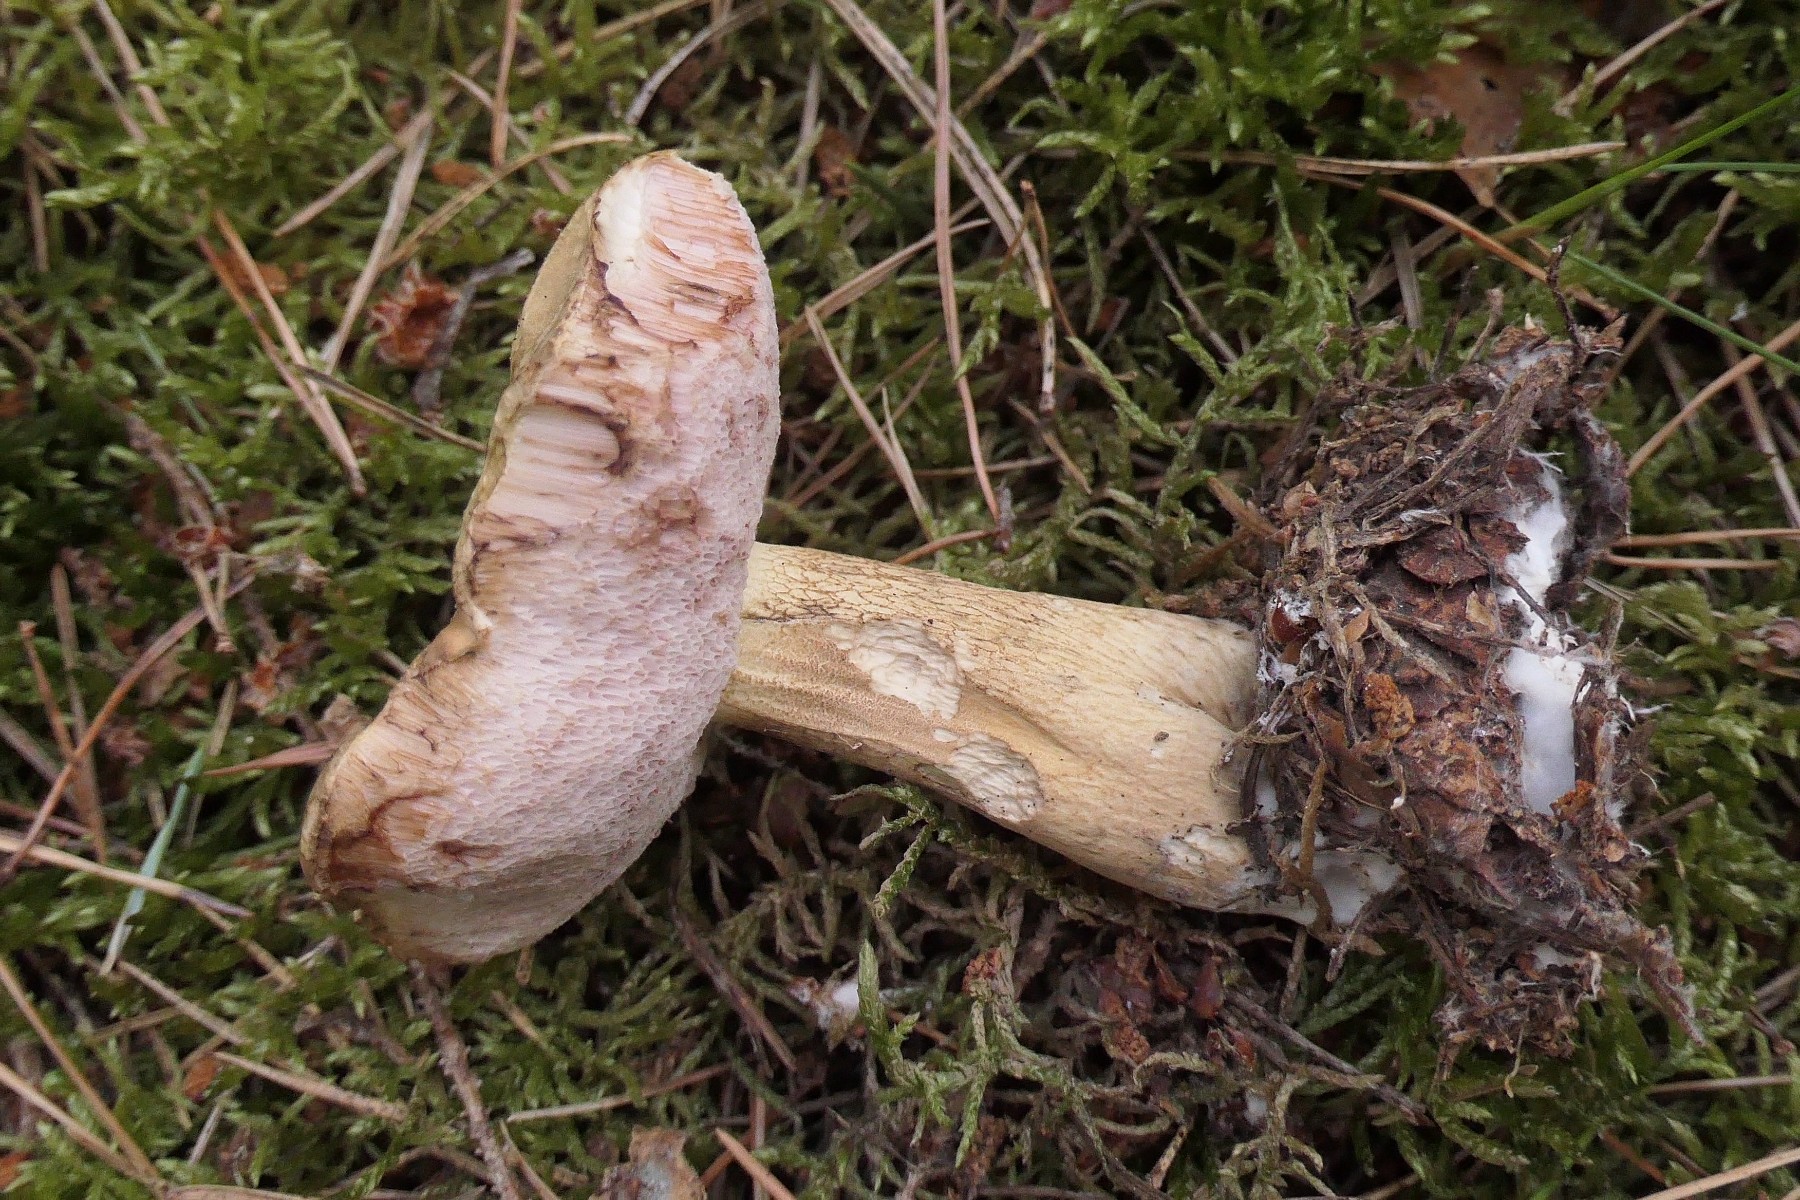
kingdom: Fungi
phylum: Basidiomycota
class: Agaricomycetes
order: Boletales
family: Boletaceae
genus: Tylopilus
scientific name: Tylopilus felleus
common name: galderørhat
